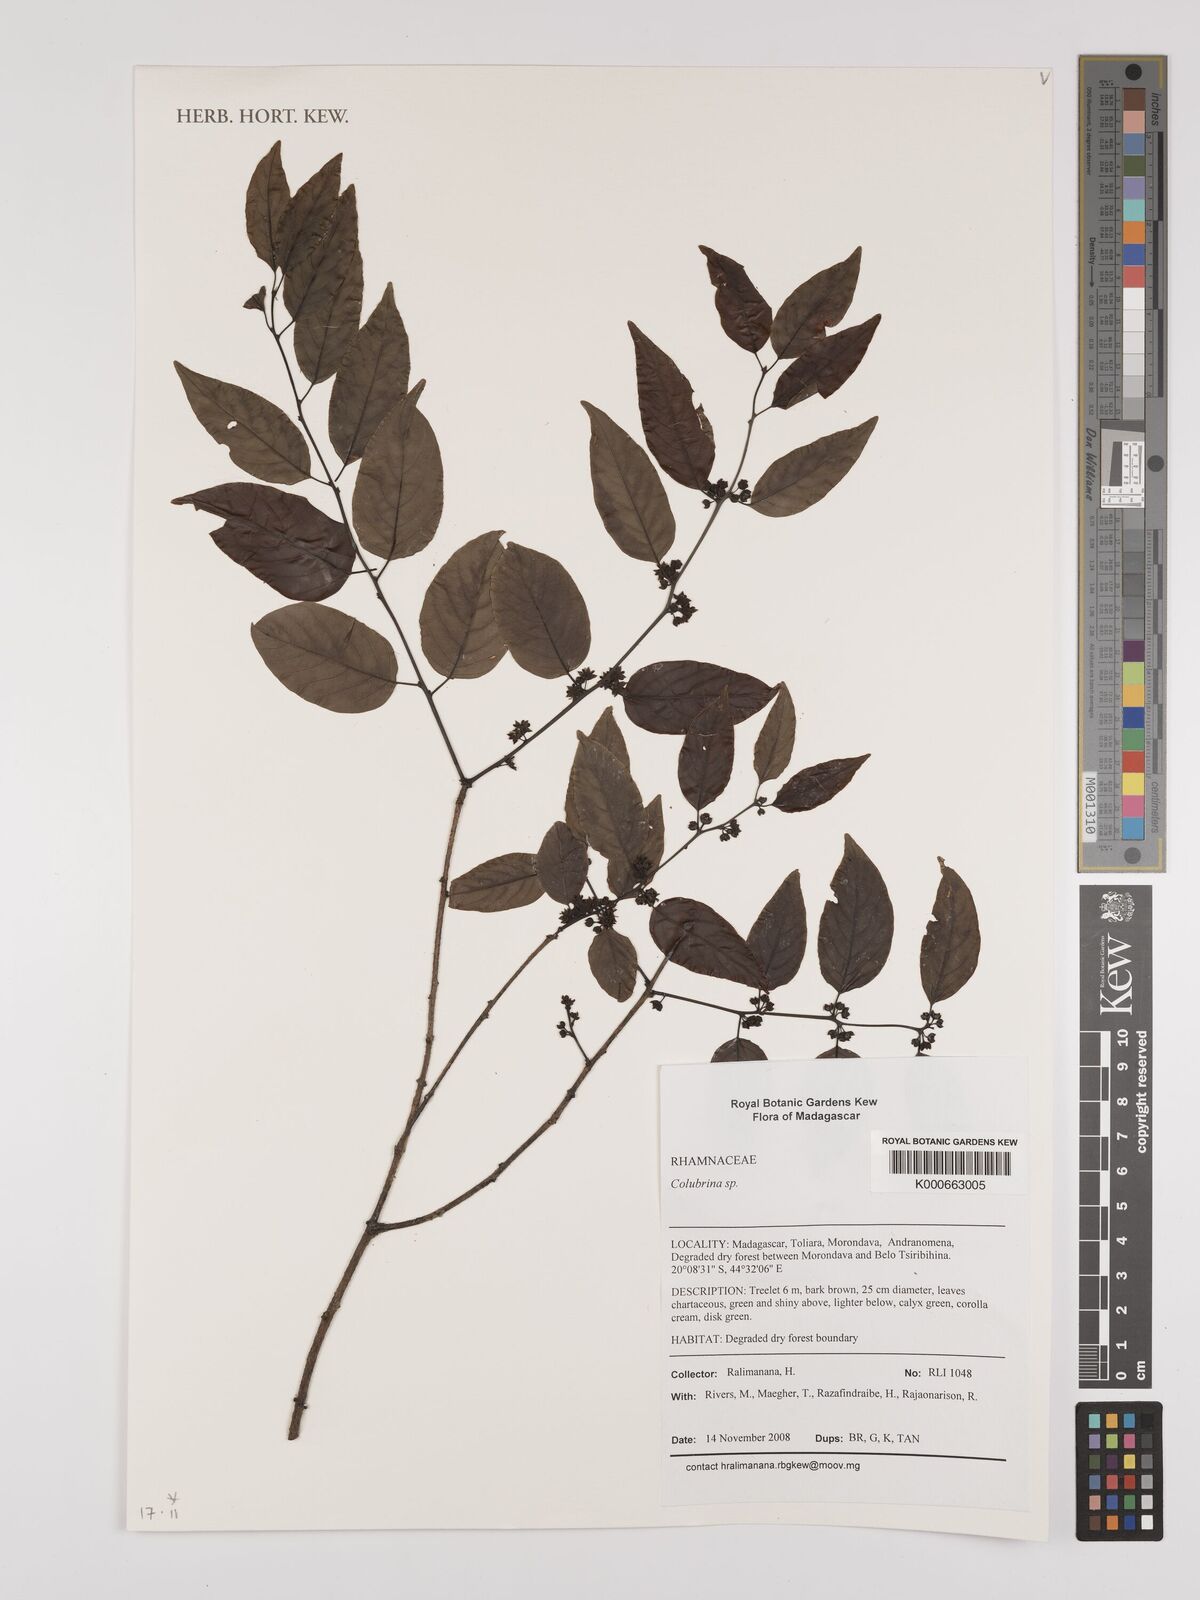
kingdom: Plantae
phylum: Tracheophyta
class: Magnoliopsida
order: Rosales
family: Rhamnaceae
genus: Colubrina
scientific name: Colubrina
